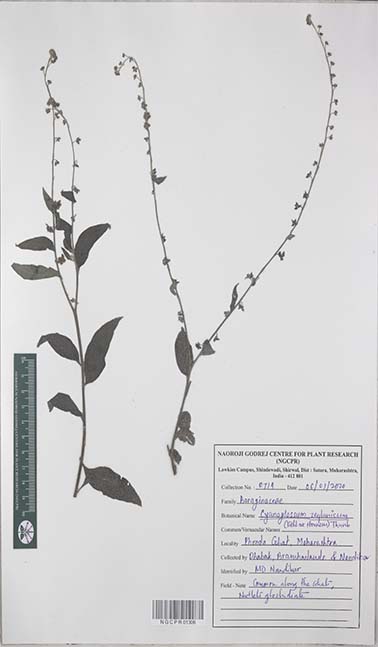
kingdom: Plantae
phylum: Tracheophyta
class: Magnoliopsida
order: Boraginales
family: Boraginaceae
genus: Rochelia
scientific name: Rochelia zeylanica
